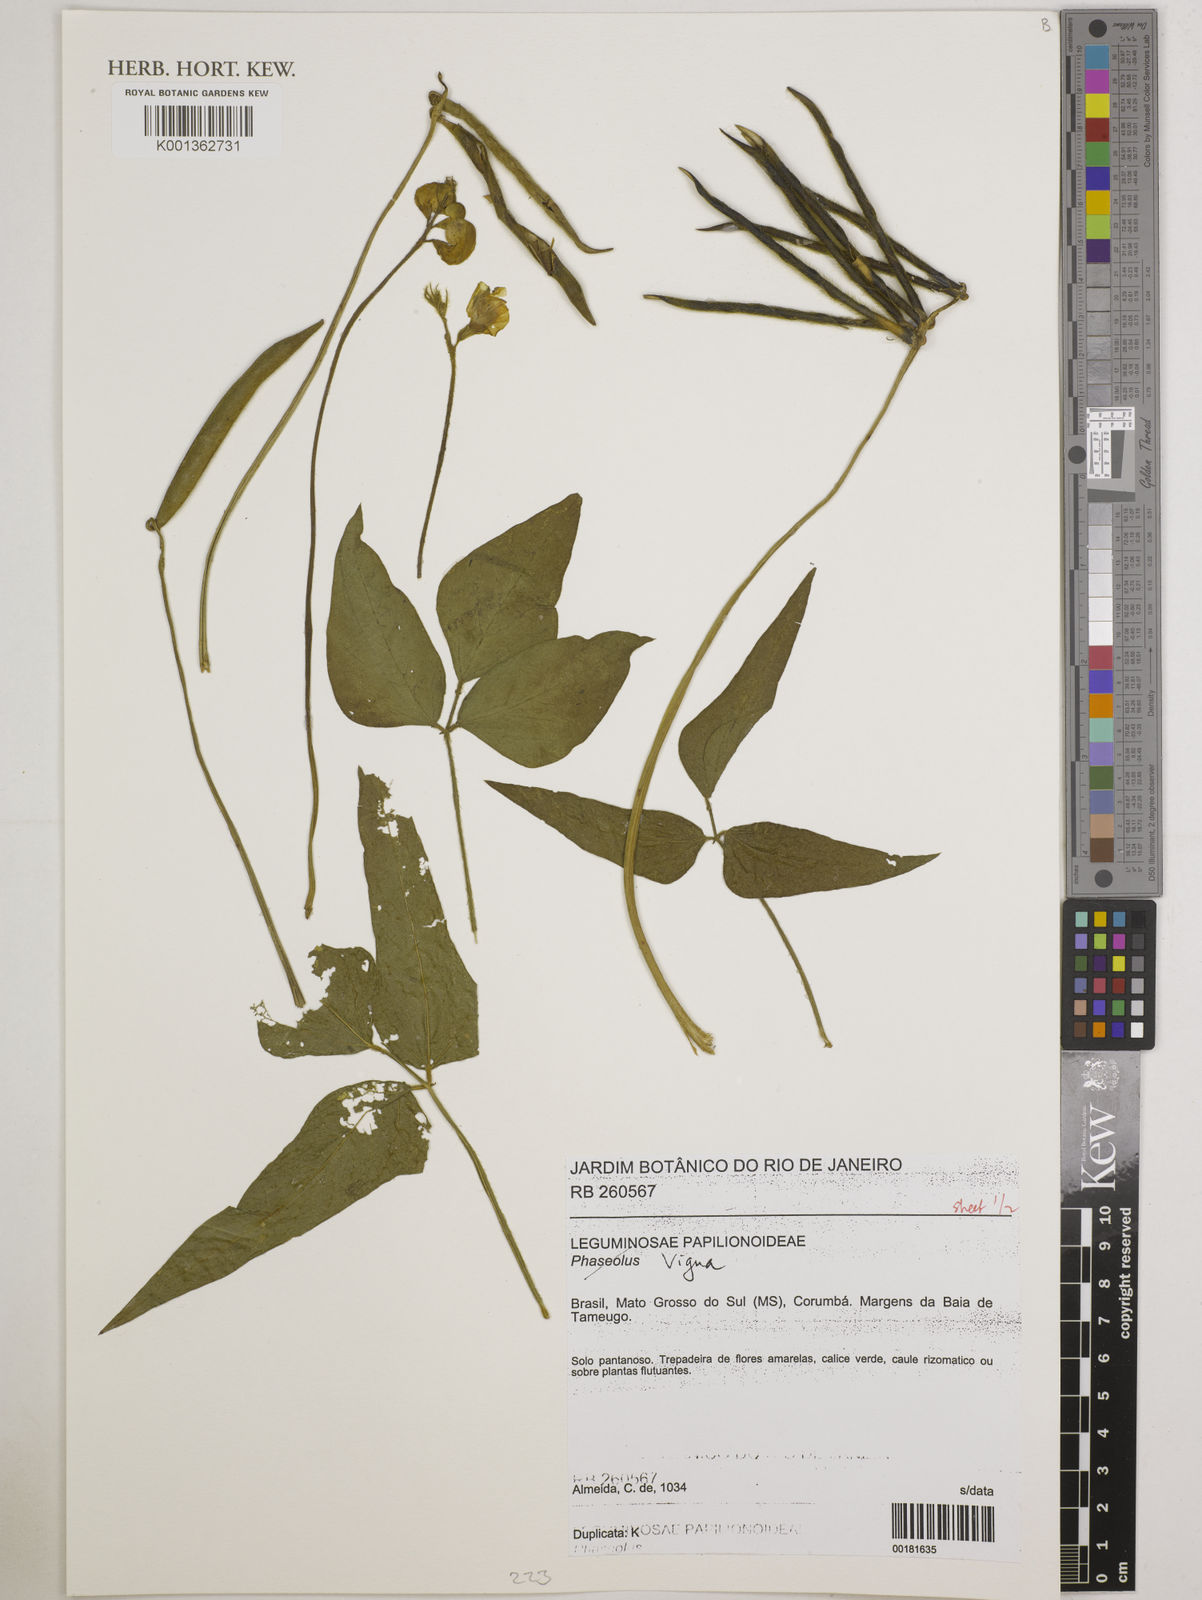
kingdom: Plantae
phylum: Tracheophyta
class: Magnoliopsida
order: Fabales
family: Fabaceae
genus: Vigna
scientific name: Vigna
